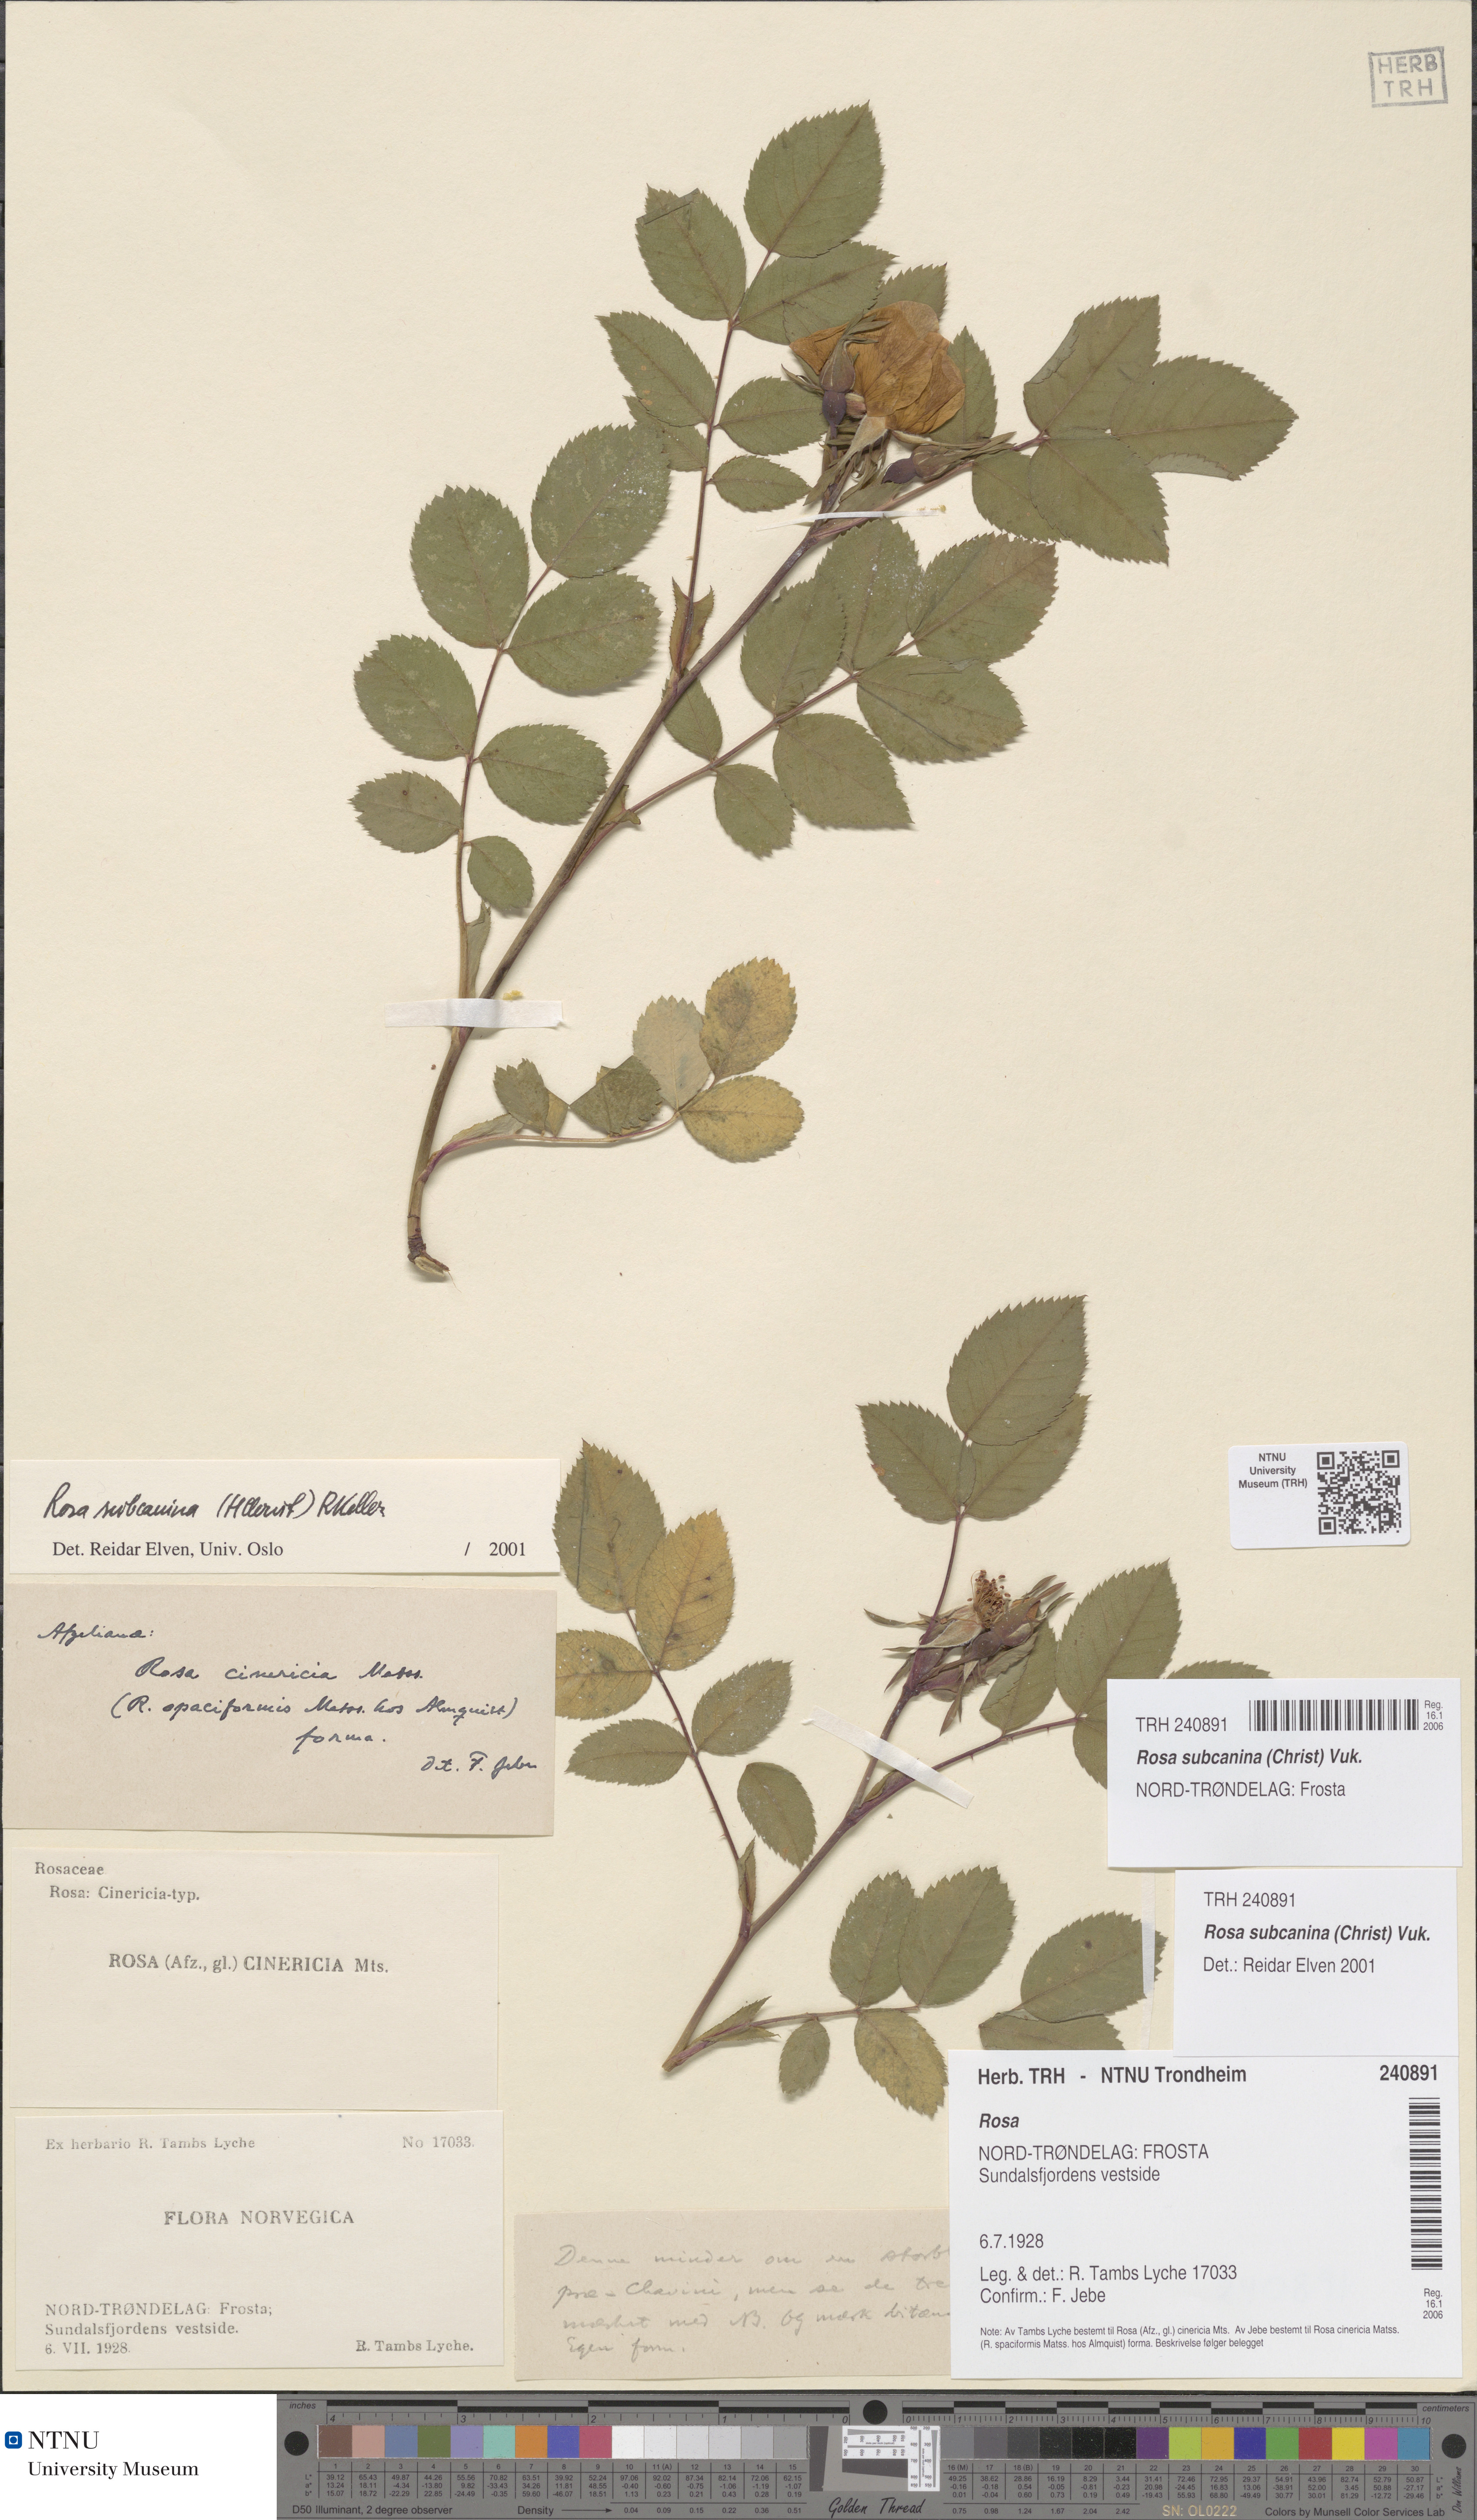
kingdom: Plantae
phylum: Tracheophyta
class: Magnoliopsida
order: Rosales
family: Rosaceae
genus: Rosa
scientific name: Rosa subcanina
